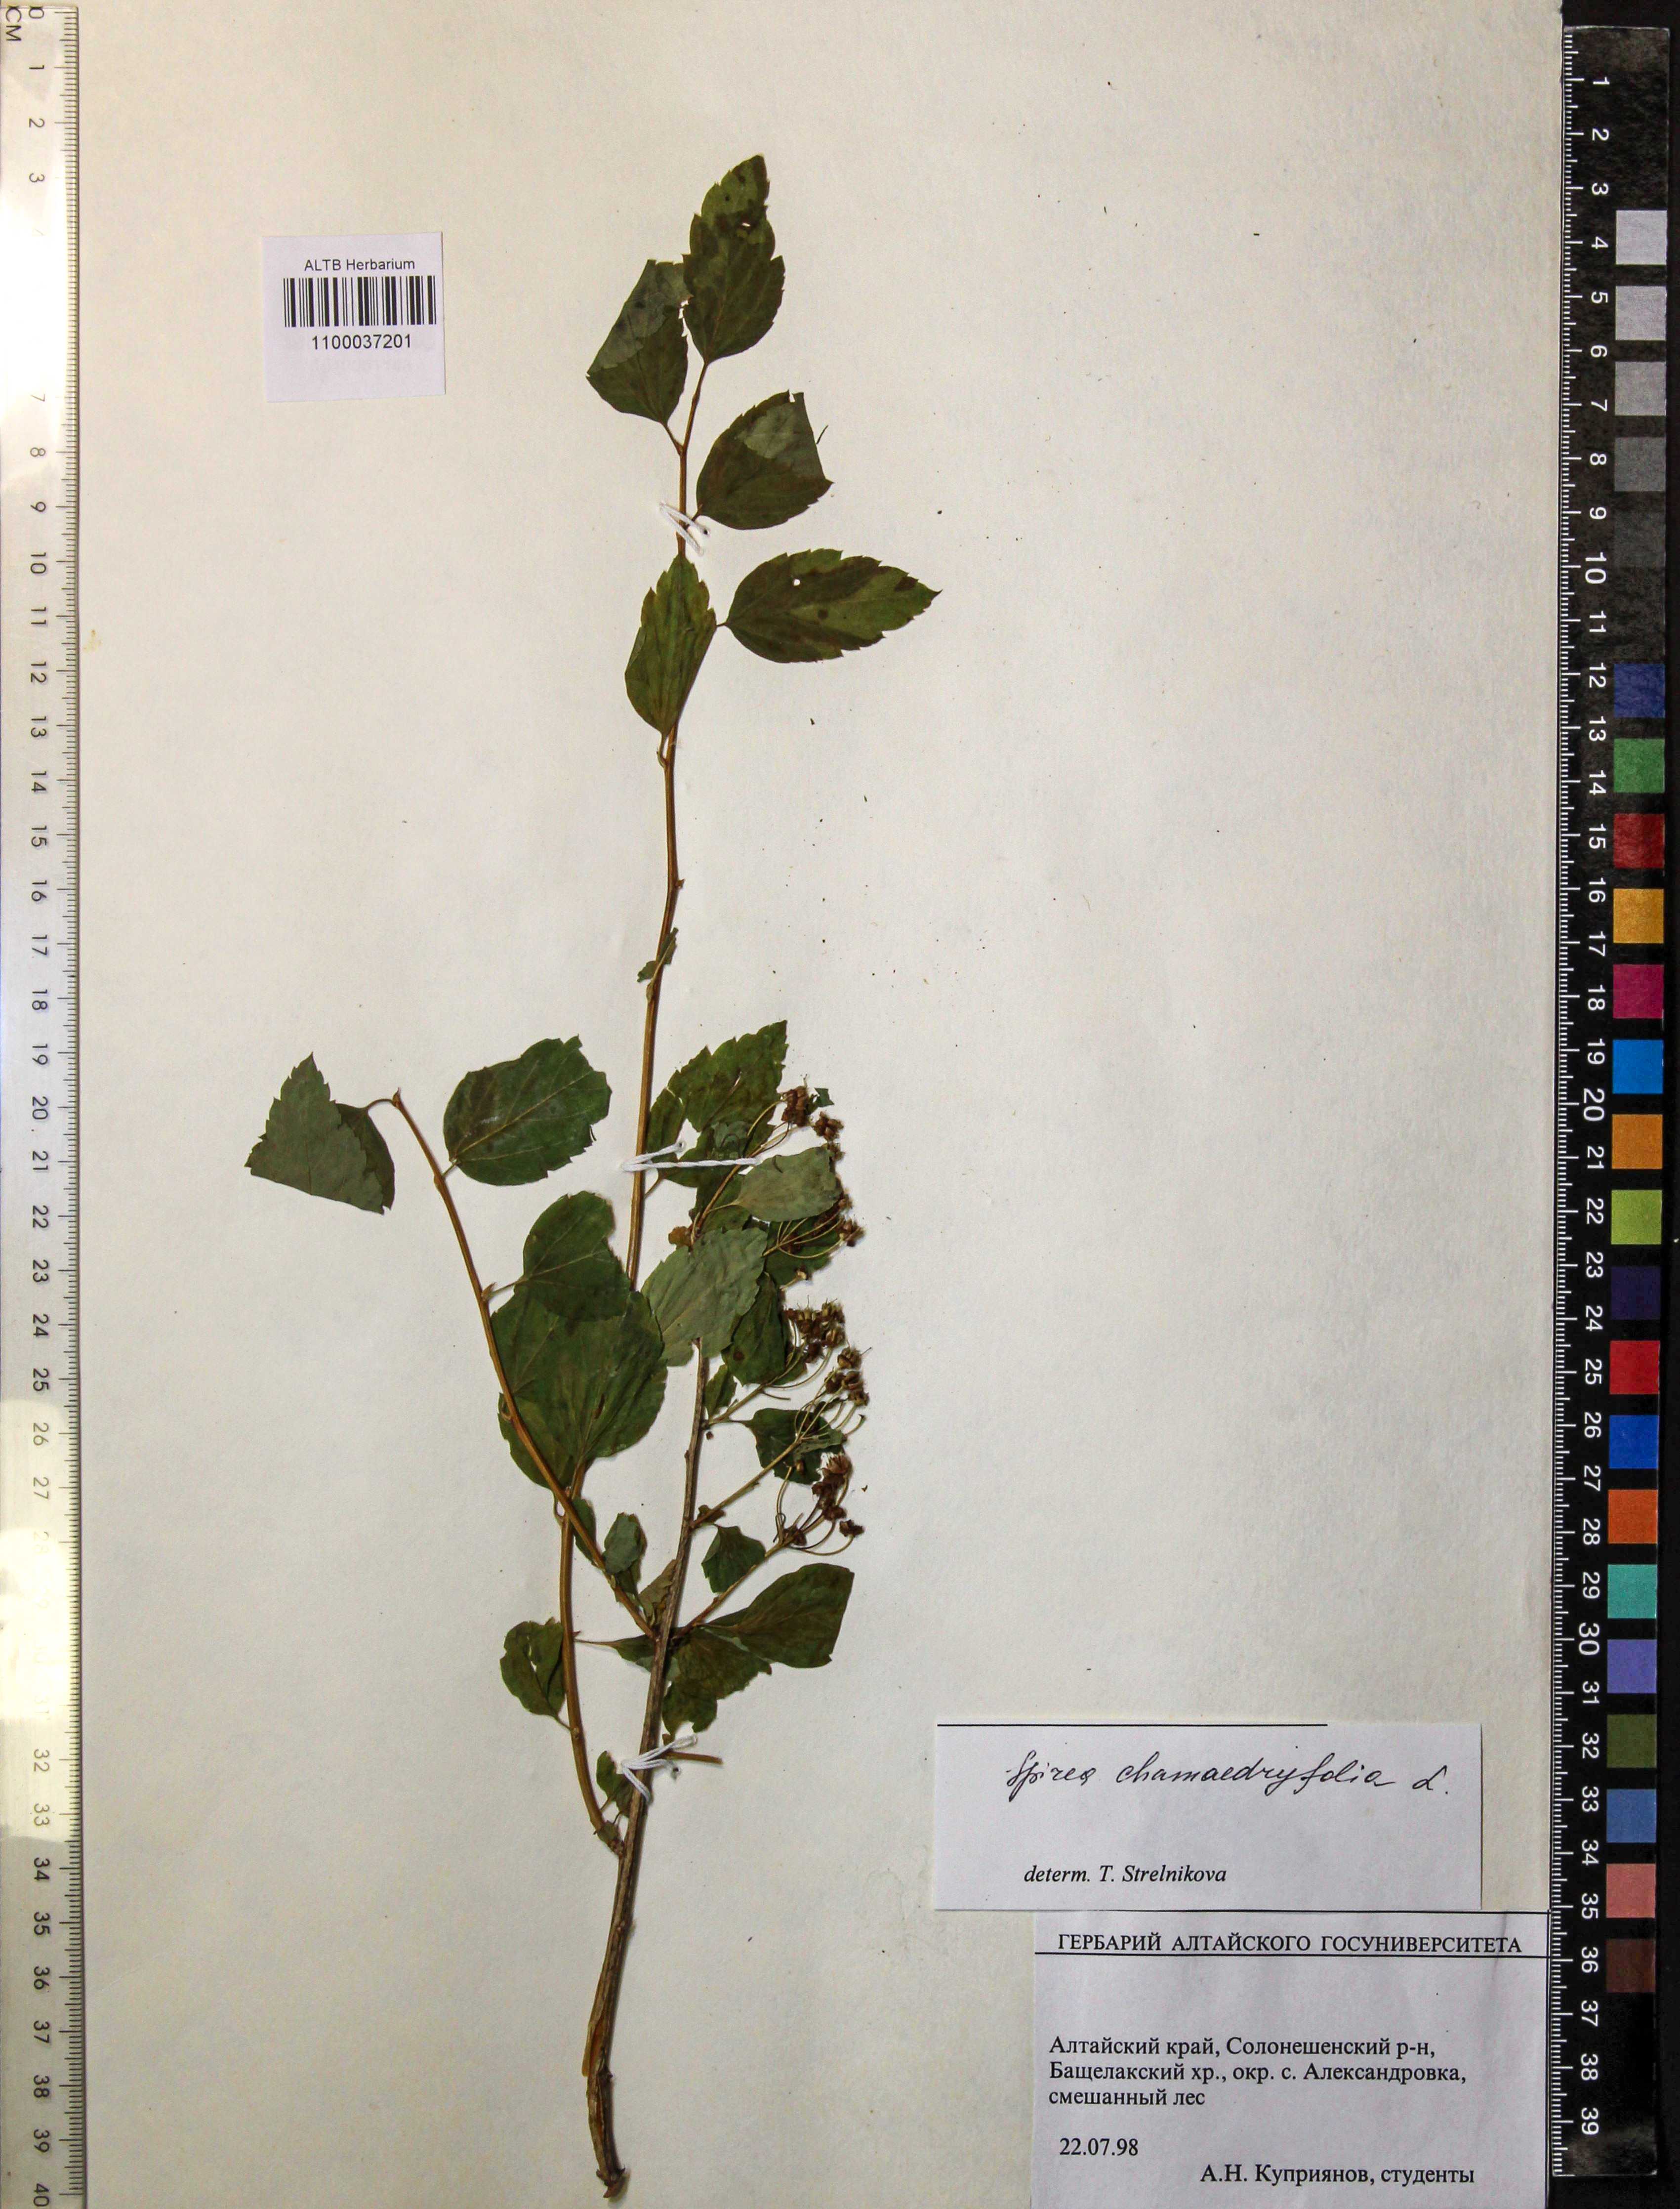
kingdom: Plantae
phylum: Tracheophyta
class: Magnoliopsida
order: Rosales
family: Rosaceae
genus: Spiraea
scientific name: Spiraea chamaedryfolia
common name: Elm-leaved spiraea
